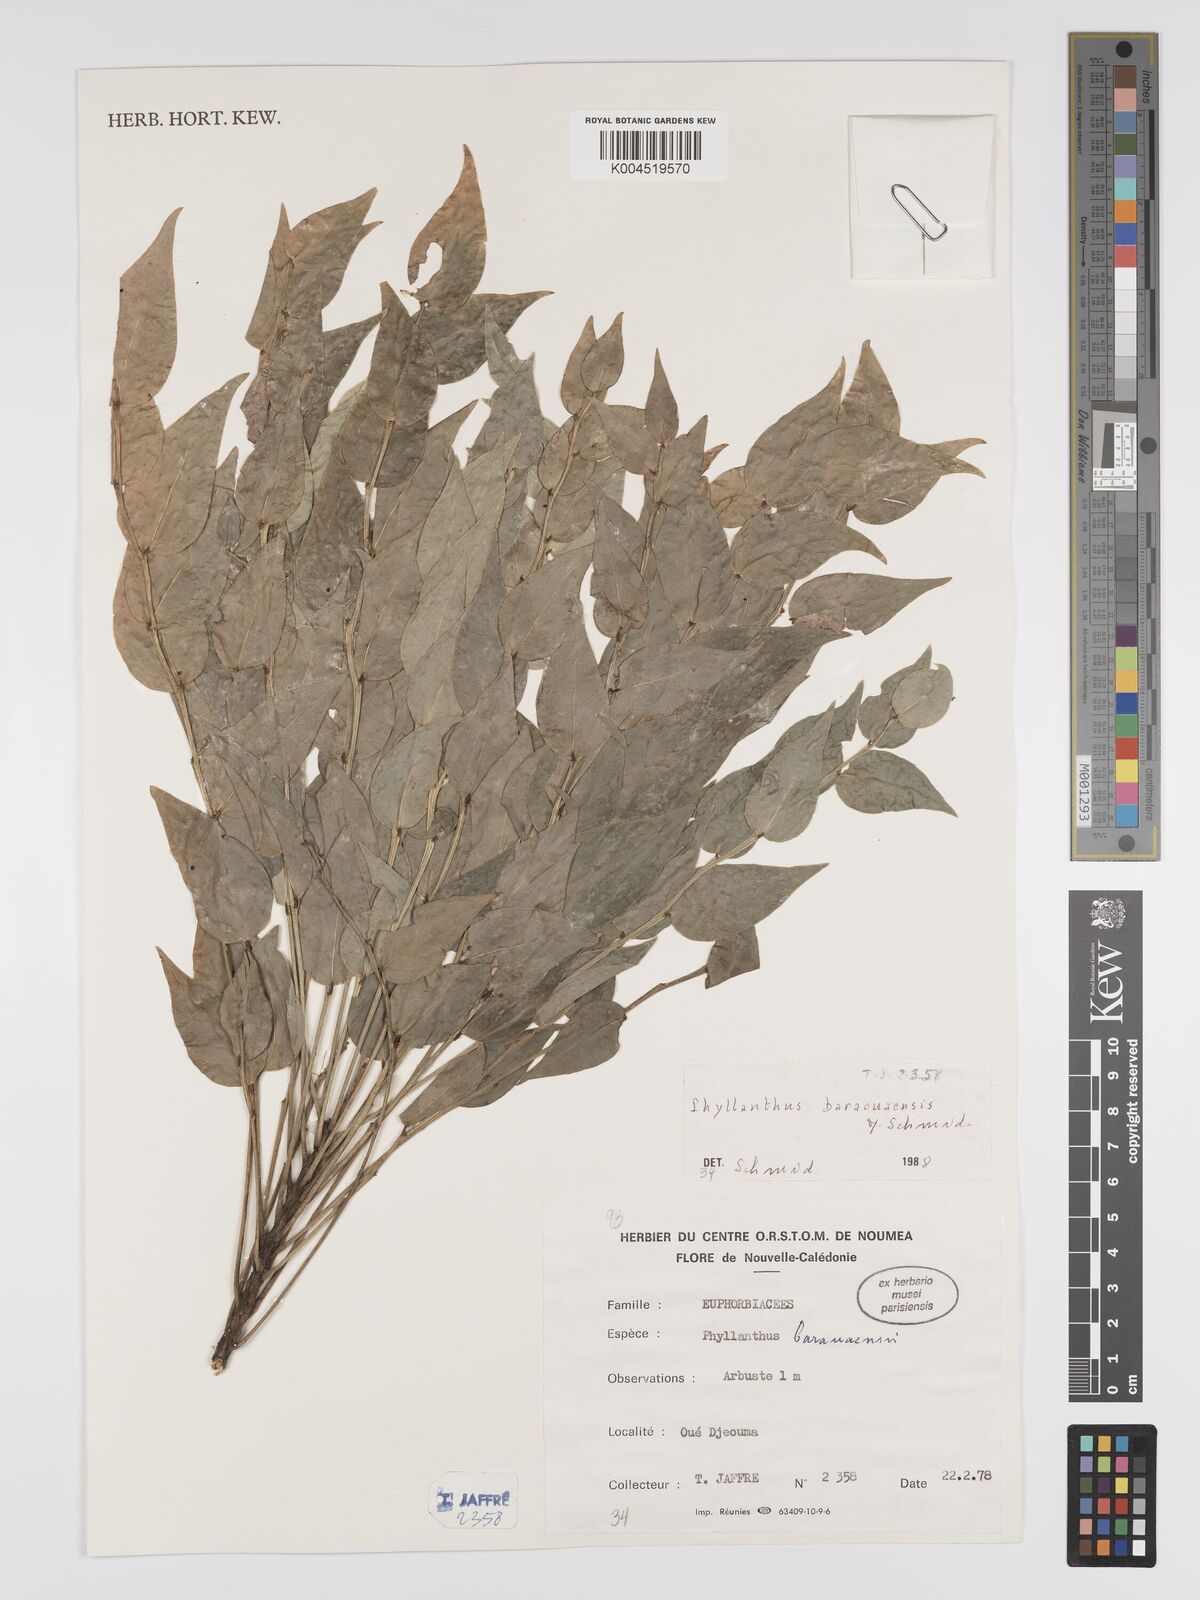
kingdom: Plantae
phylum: Tracheophyta
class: Magnoliopsida
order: Malpighiales
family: Phyllanthaceae
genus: Phyllanthus
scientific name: Phyllanthus baraouaensis
